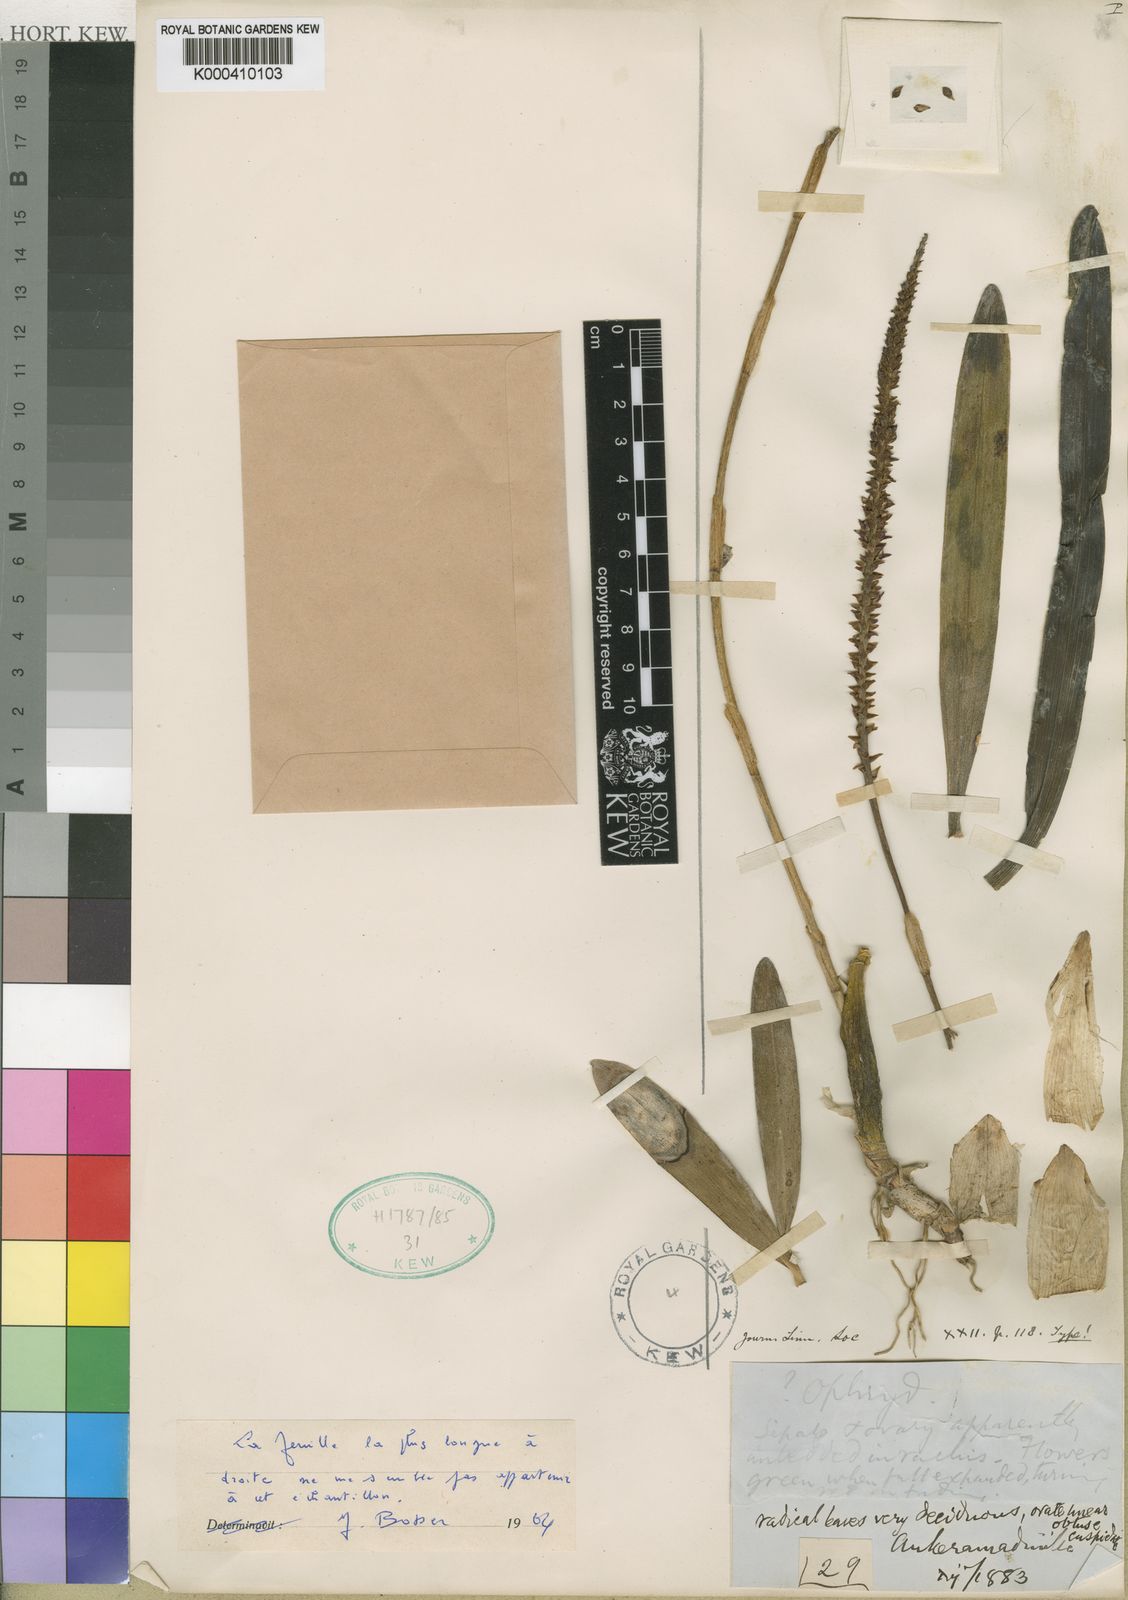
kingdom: Plantae
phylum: Tracheophyta
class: Liliopsida
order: Asparagales
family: Orchidaceae
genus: Bulbophyllum
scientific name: Bulbophyllum
